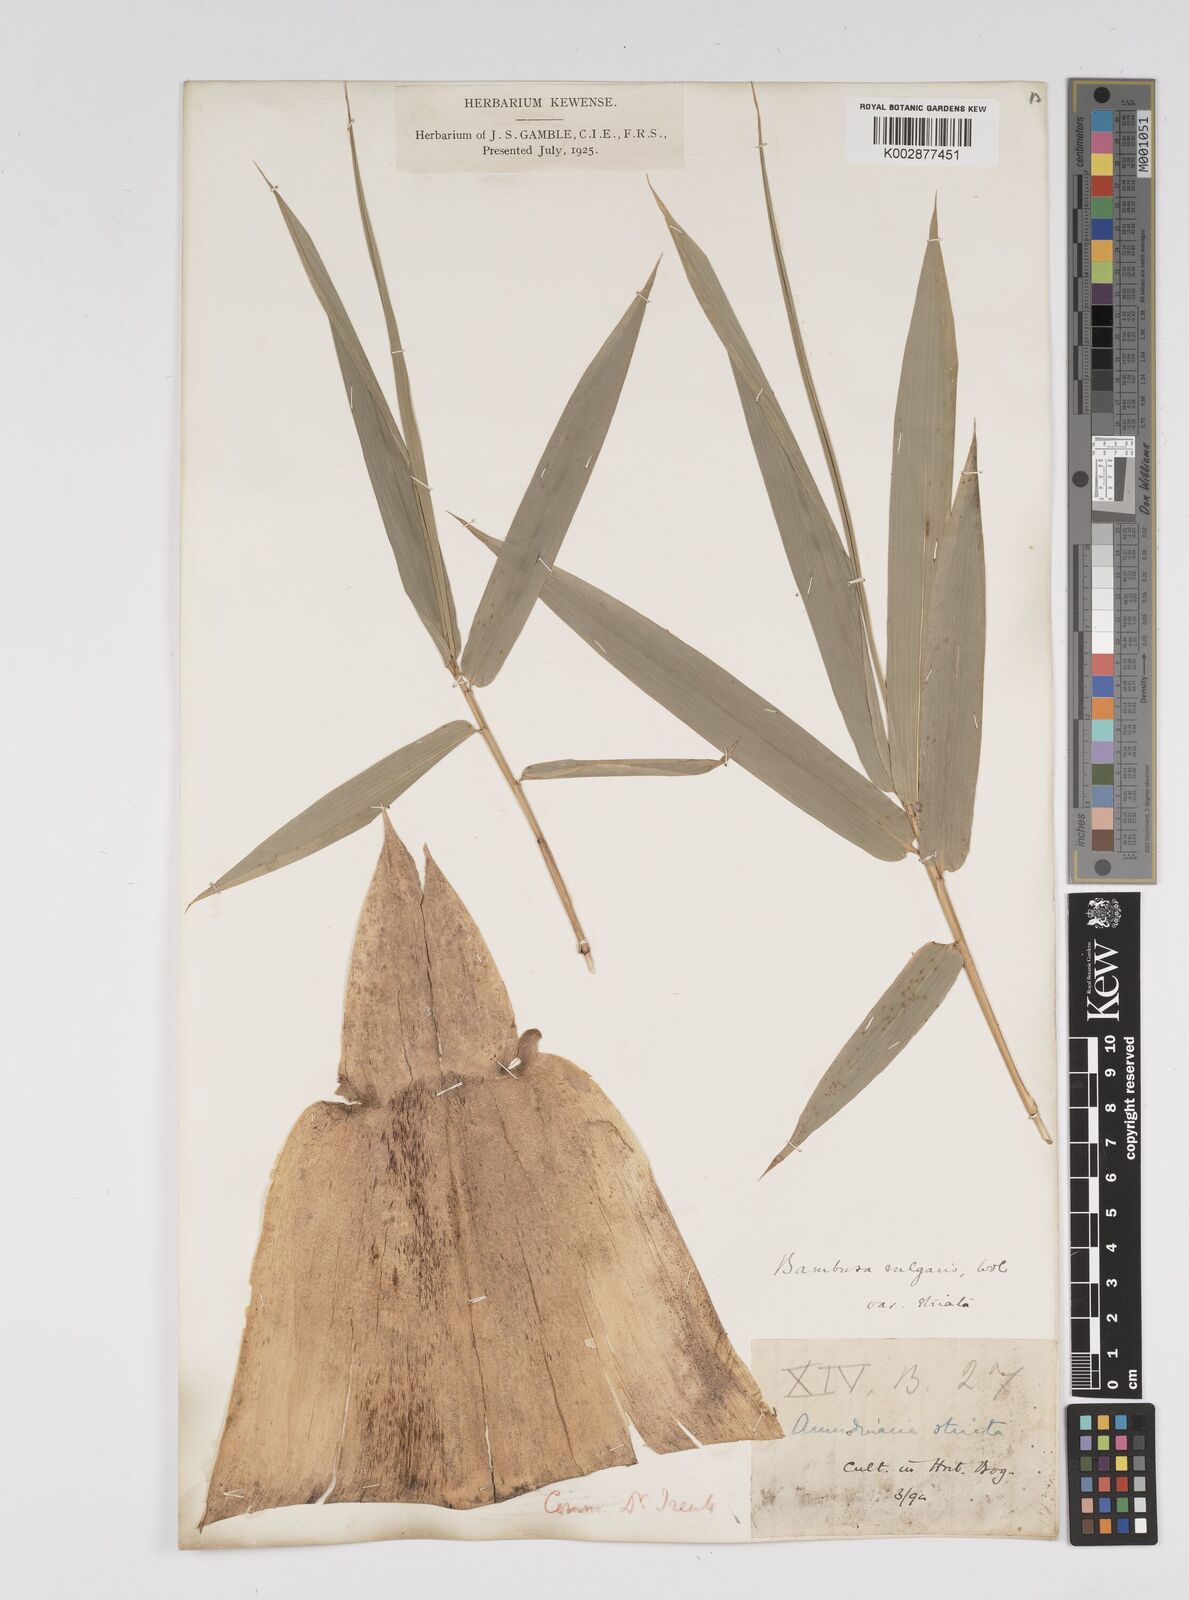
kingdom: Plantae
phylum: Tracheophyta
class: Liliopsida
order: Poales
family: Poaceae
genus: Bambusa
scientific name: Bambusa vulgaris
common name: Common bamboo
